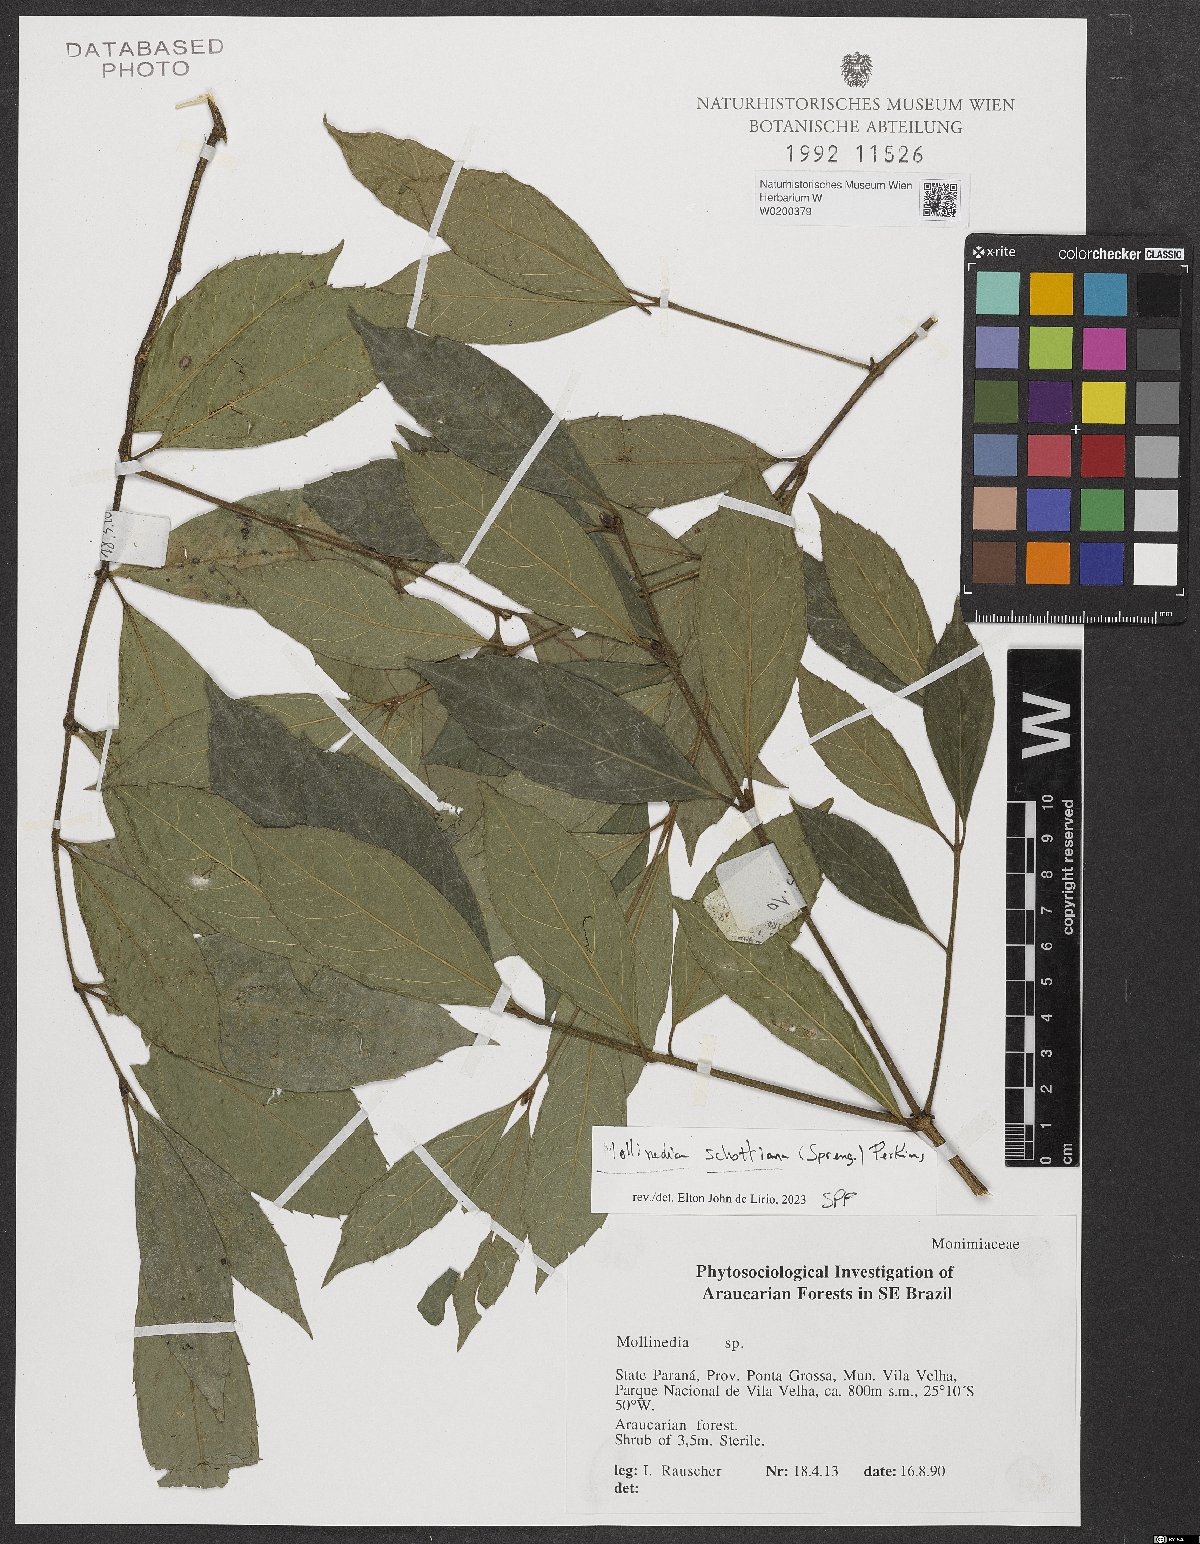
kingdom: Plantae
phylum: Tracheophyta
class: Magnoliopsida
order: Laurales
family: Monimiaceae
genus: Mollinedia
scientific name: Mollinedia umbellata
